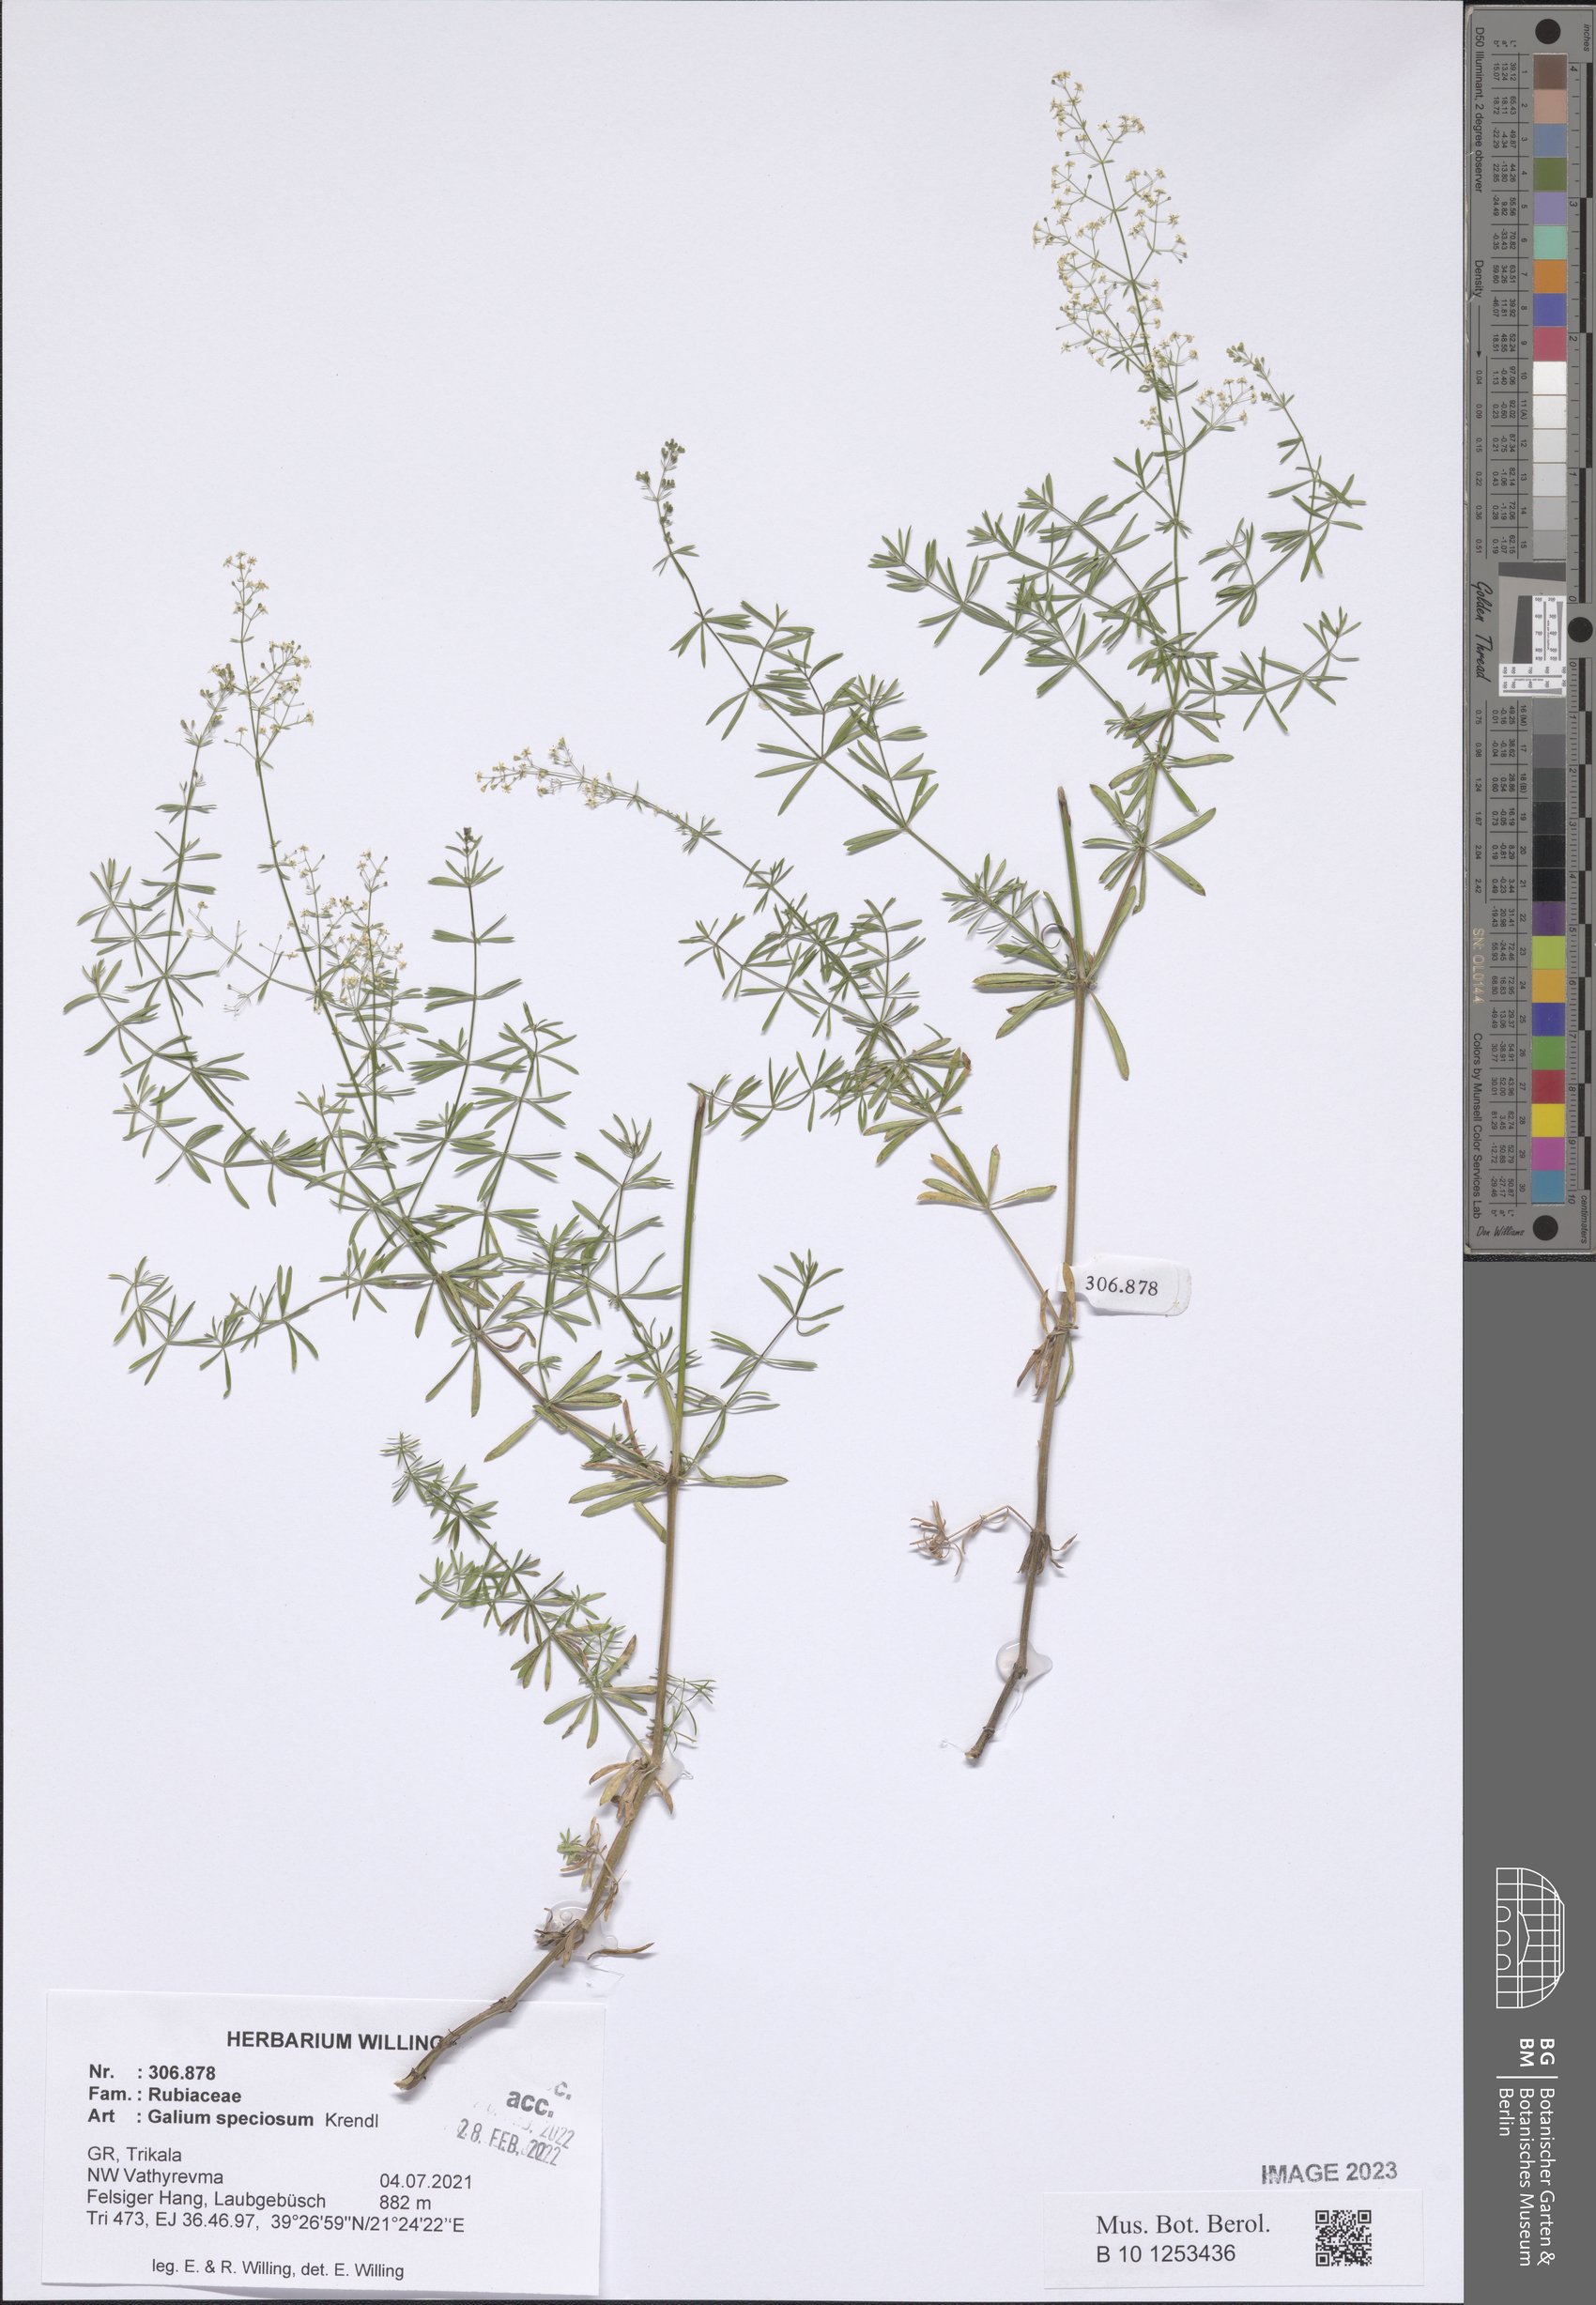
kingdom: Plantae
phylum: Tracheophyta
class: Magnoliopsida
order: Gentianales
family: Rubiaceae
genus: Galium
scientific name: Galium speciosum
